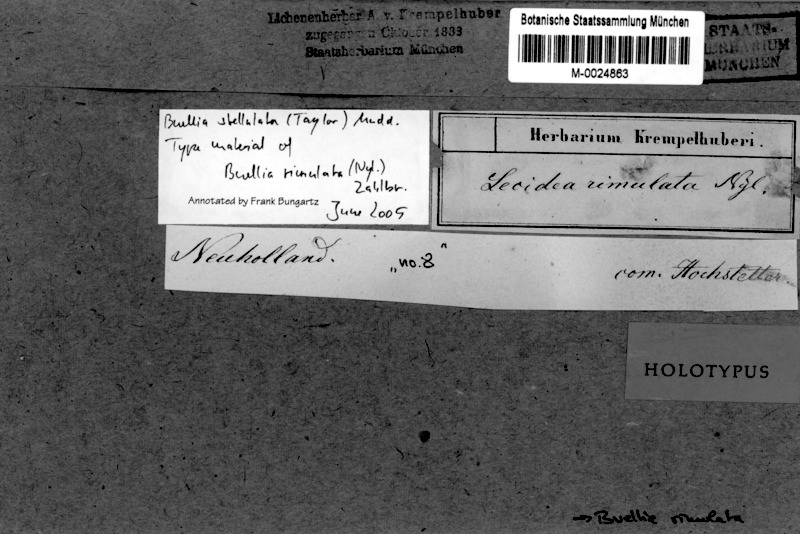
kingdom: Fungi
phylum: Ascomycota
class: Lecanoromycetes
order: Caliciales
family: Caliciaceae
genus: Buellia
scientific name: Buellia stellulata
